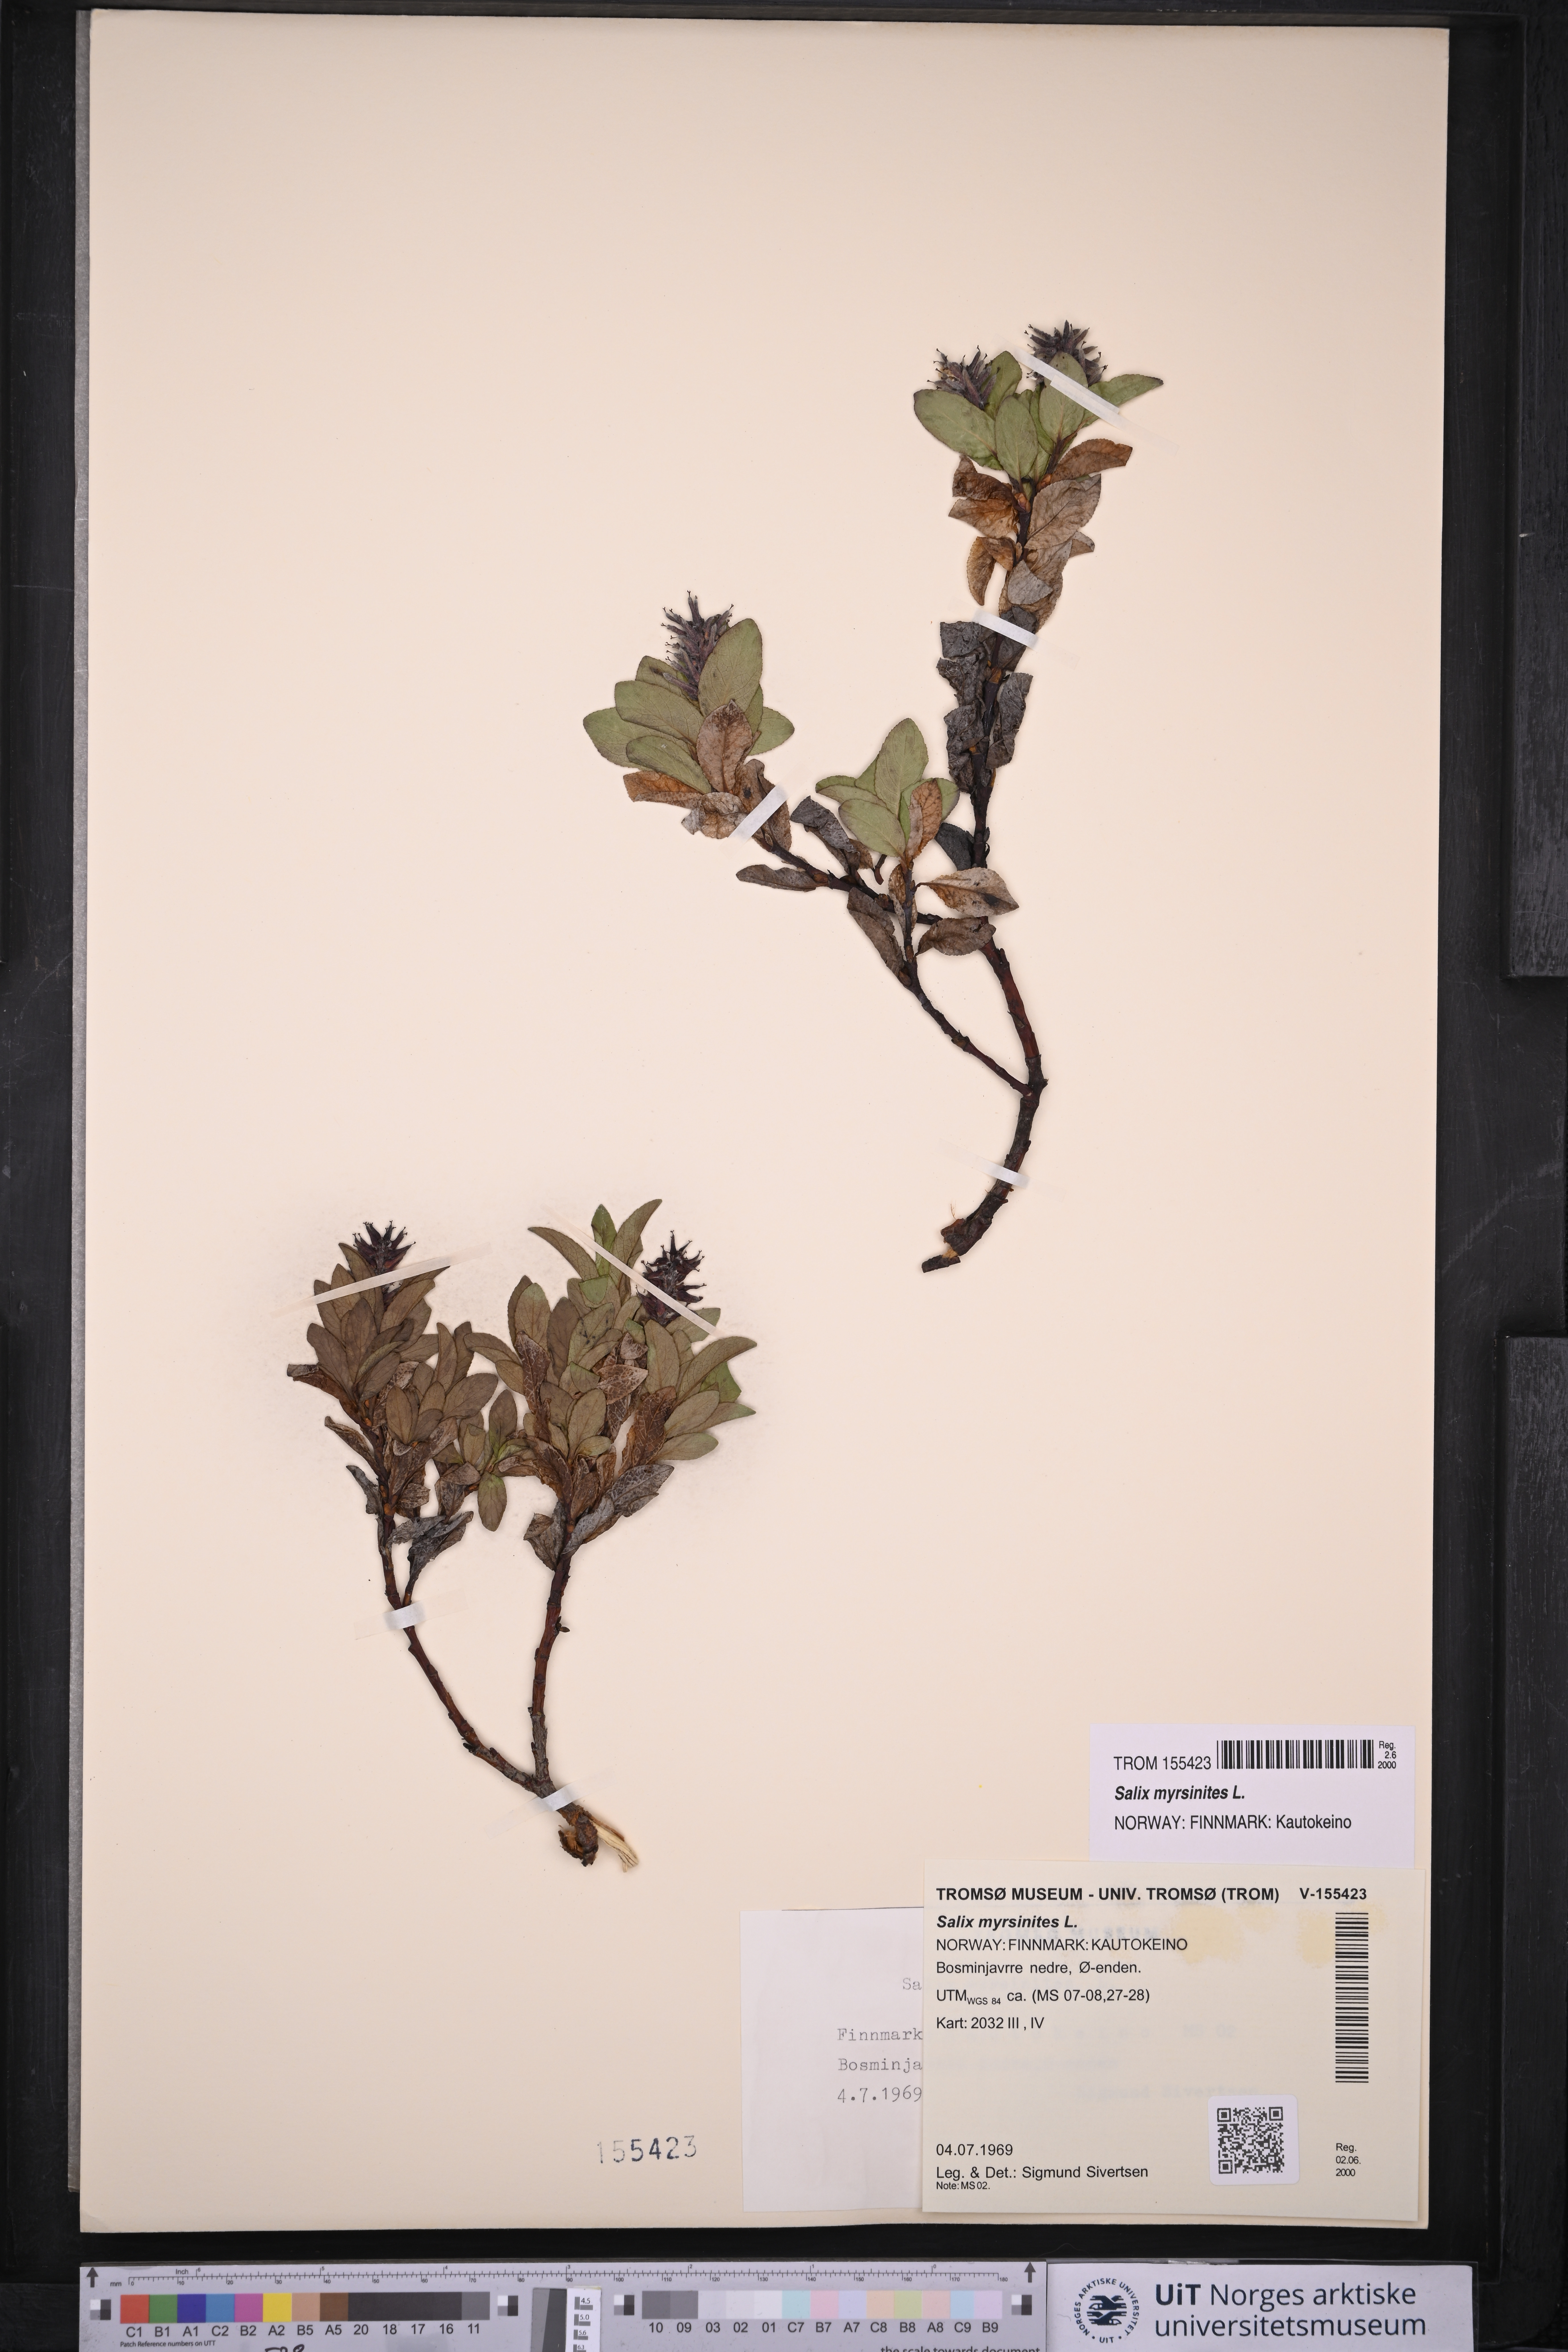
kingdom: Plantae
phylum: Tracheophyta
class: Magnoliopsida
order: Malpighiales
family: Salicaceae
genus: Salix
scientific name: Salix myrsinites
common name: Myrtle willow
